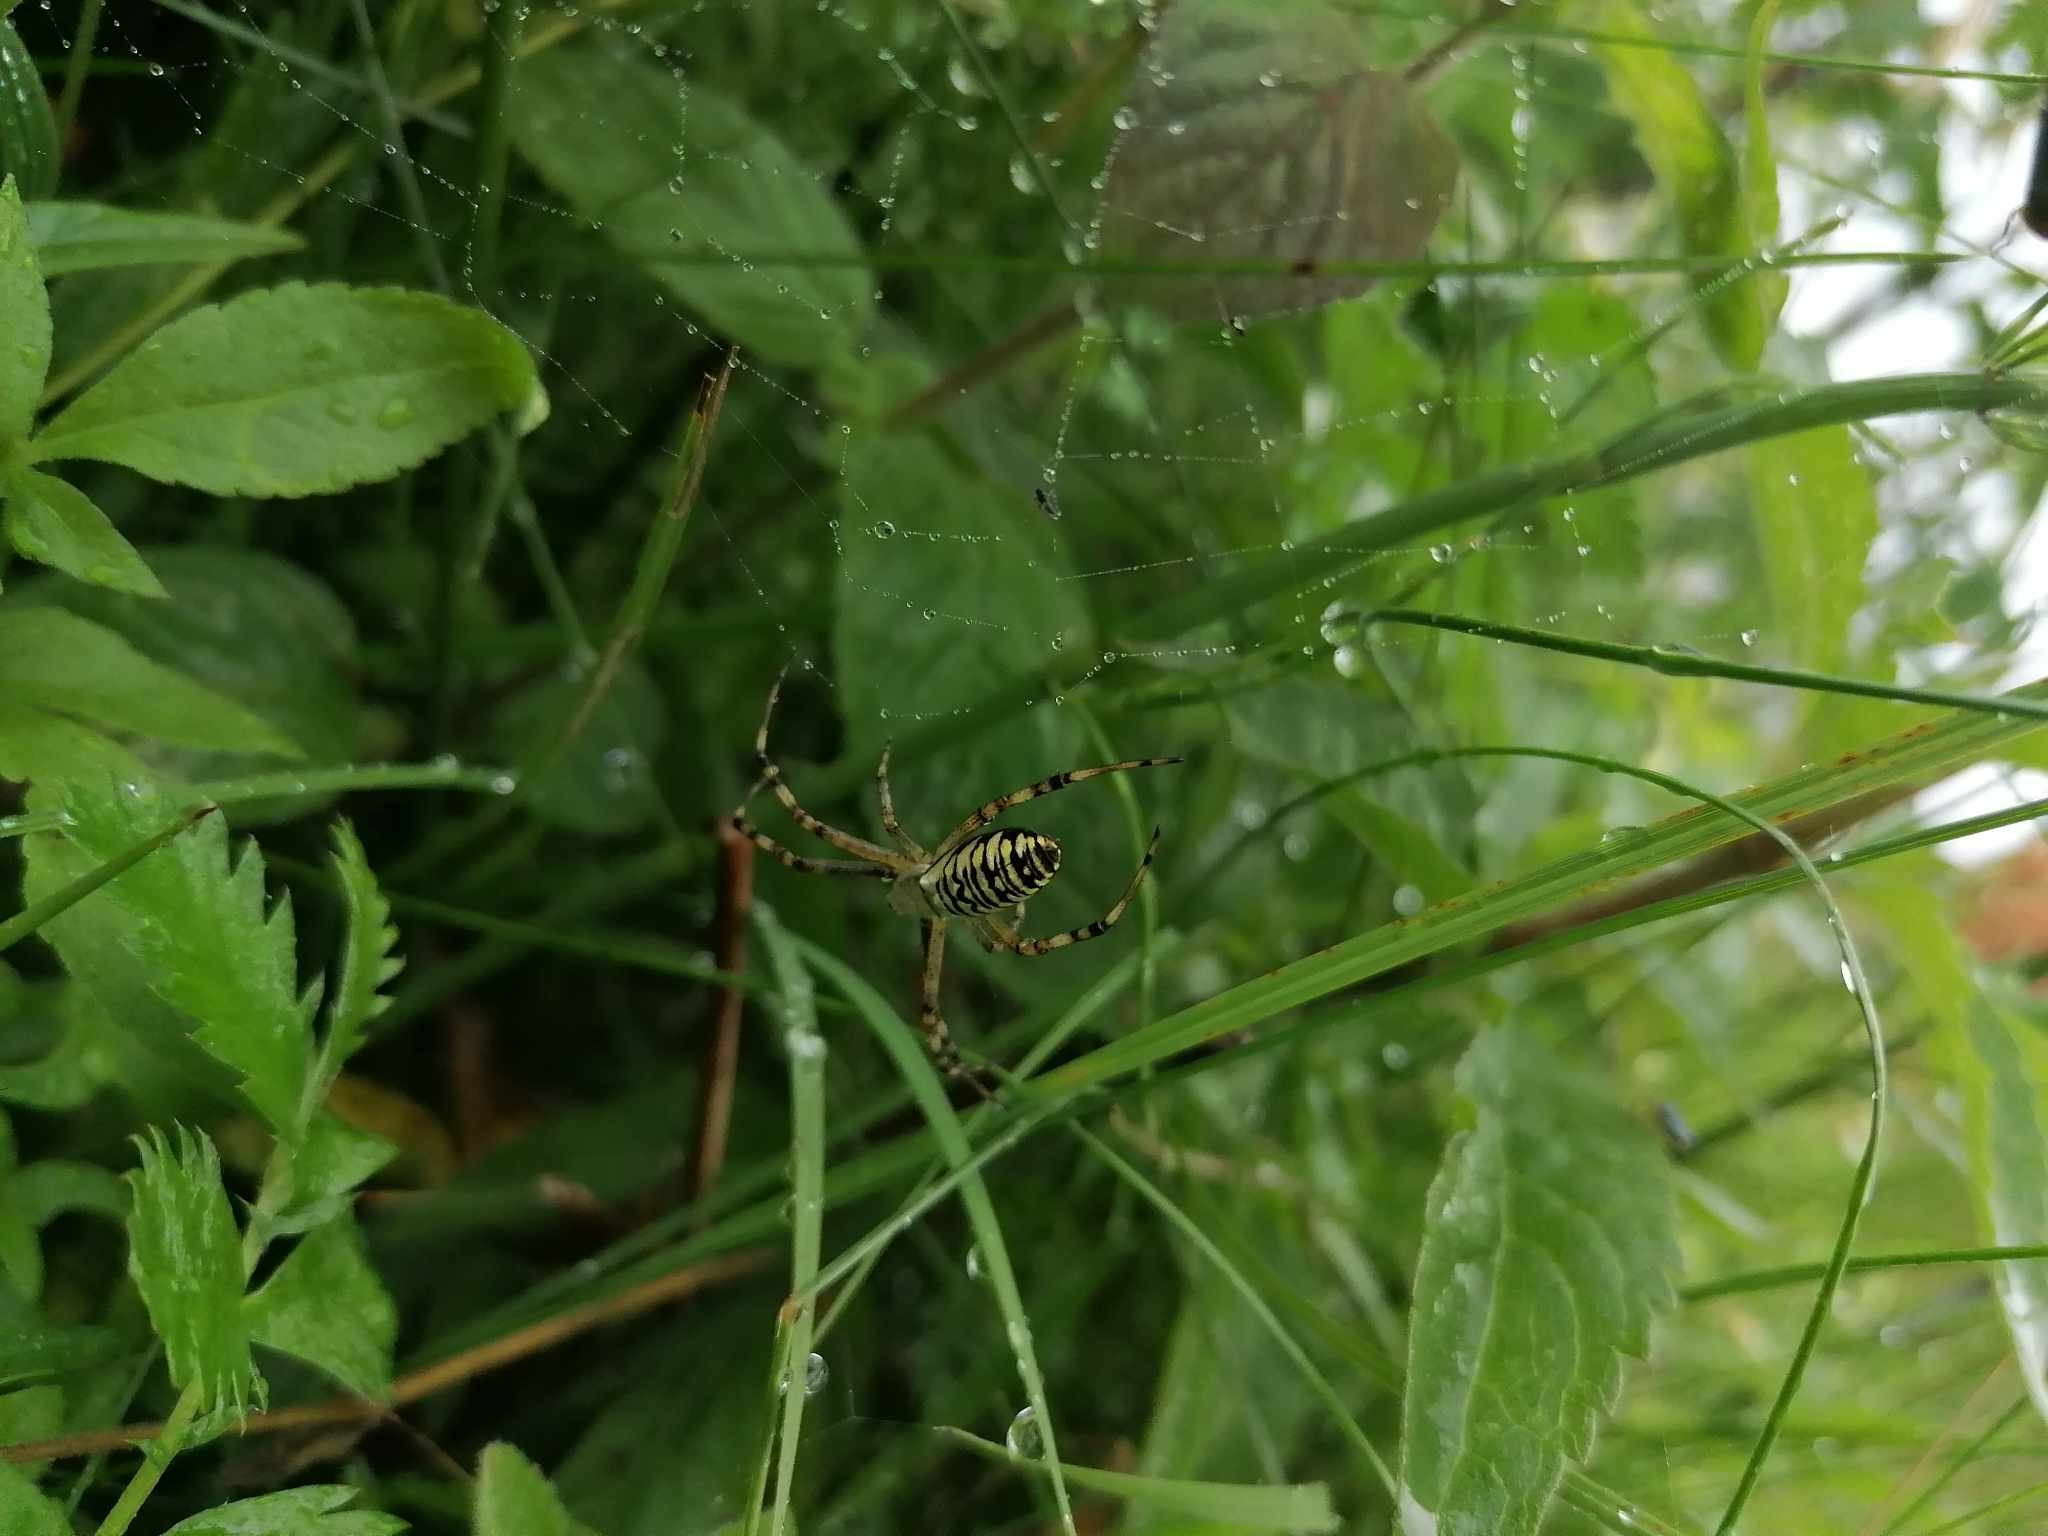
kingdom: Animalia
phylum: Arthropoda
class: Arachnida
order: Araneae
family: Araneidae
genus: Argiope
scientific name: Argiope bruennichi
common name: Hvepseedderkop
